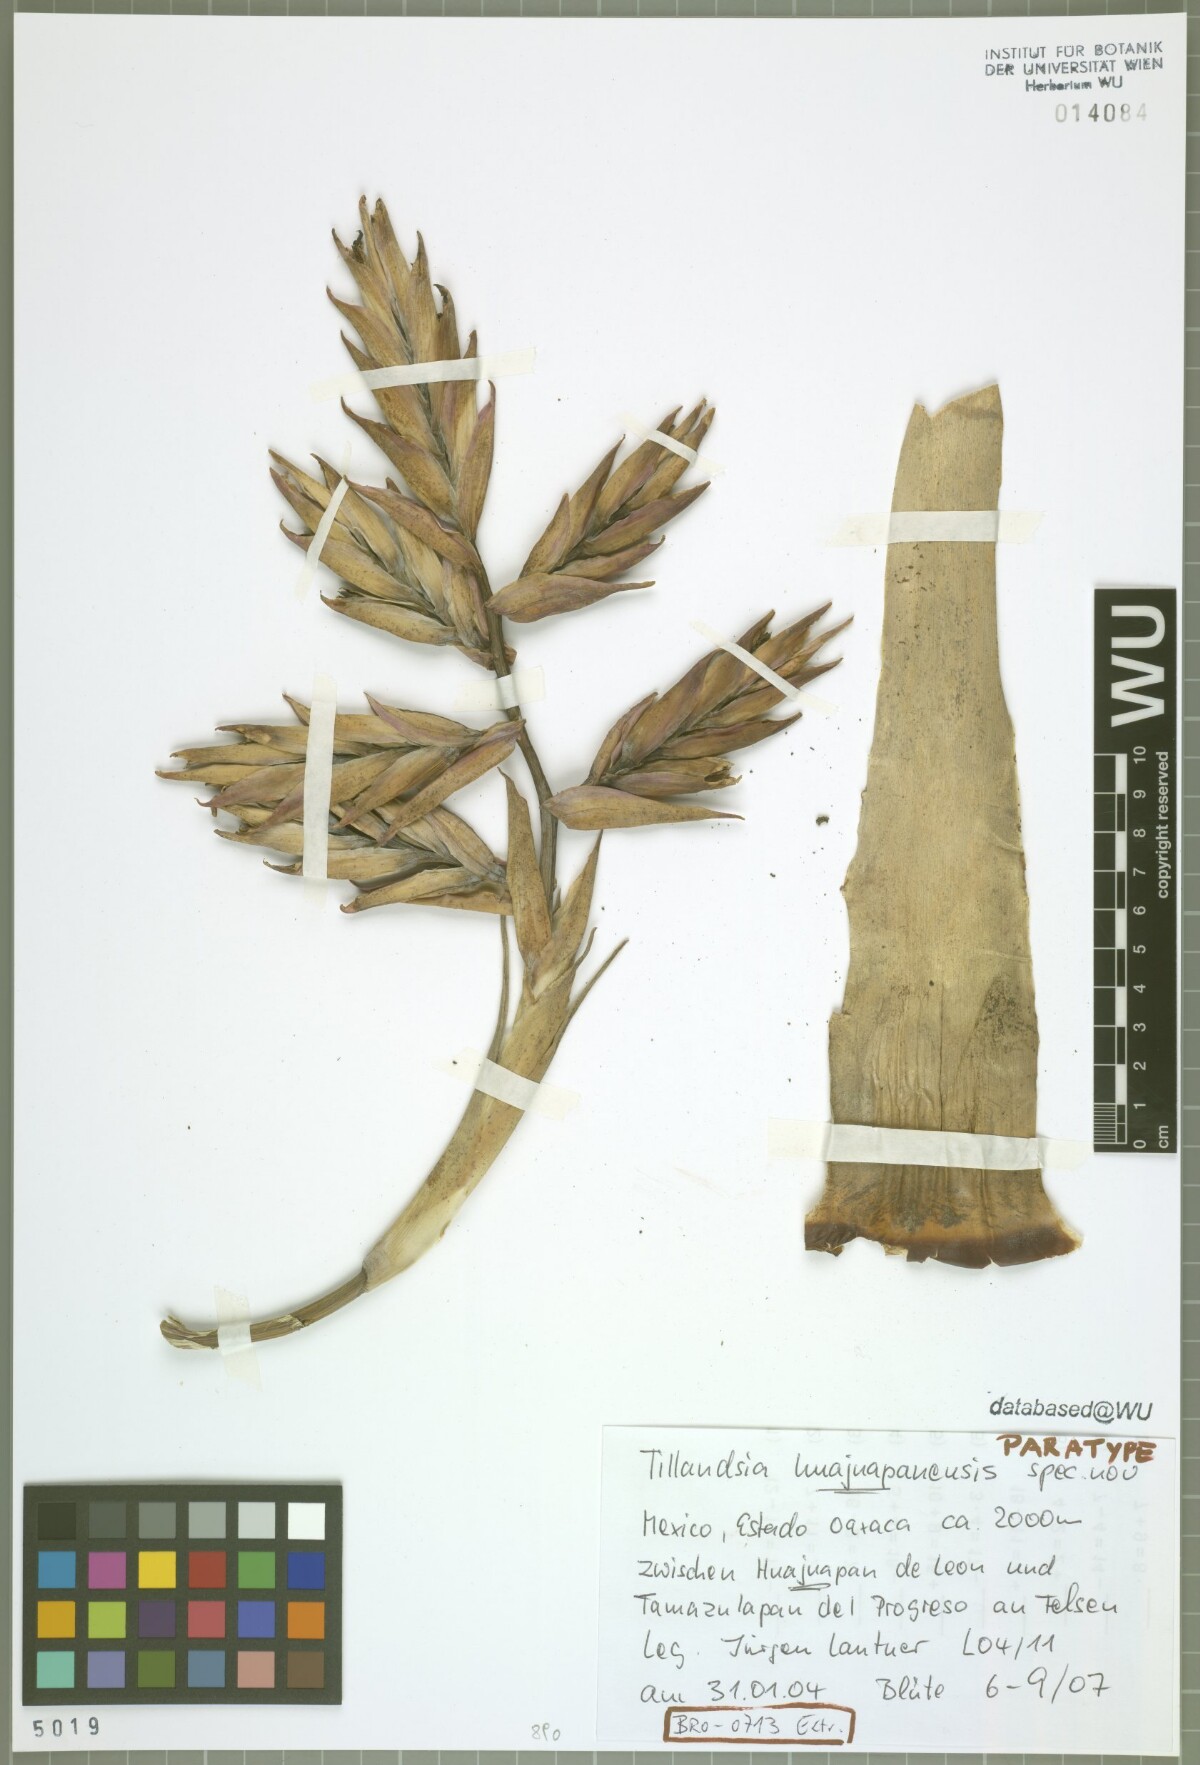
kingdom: Plantae
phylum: Tracheophyta
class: Liliopsida
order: Poales
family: Bromeliaceae
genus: Tillandsia
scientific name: Tillandsia huajuapanensis
